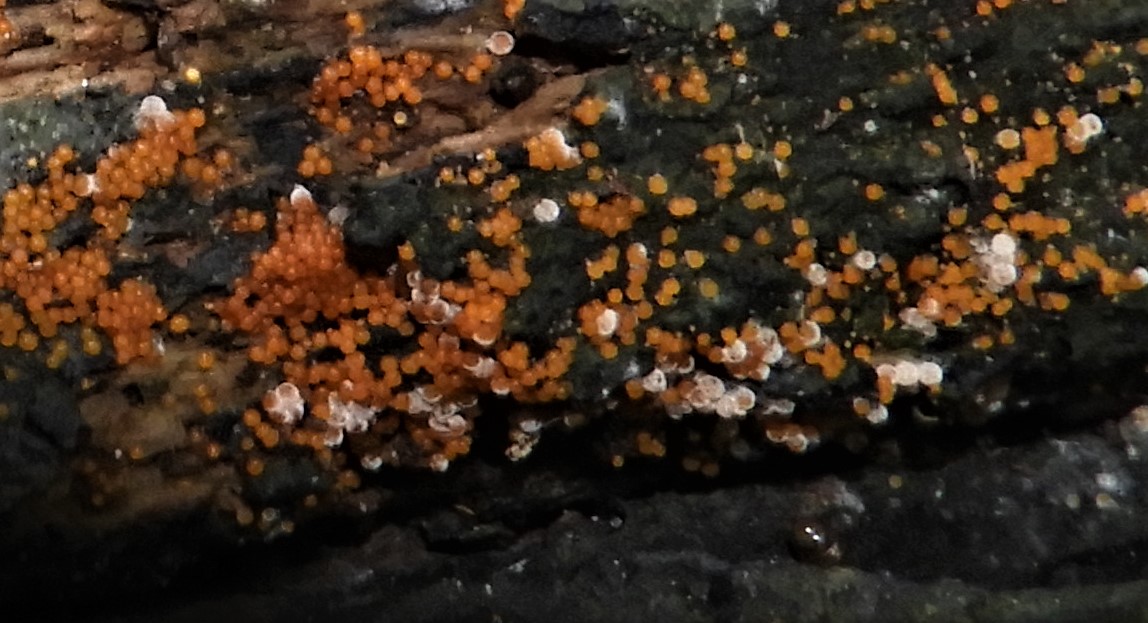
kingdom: Fungi
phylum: Ascomycota
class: Sordariomycetes
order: Hypocreales
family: Nectriaceae
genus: Hydropisphaera
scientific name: Hydropisphaera
